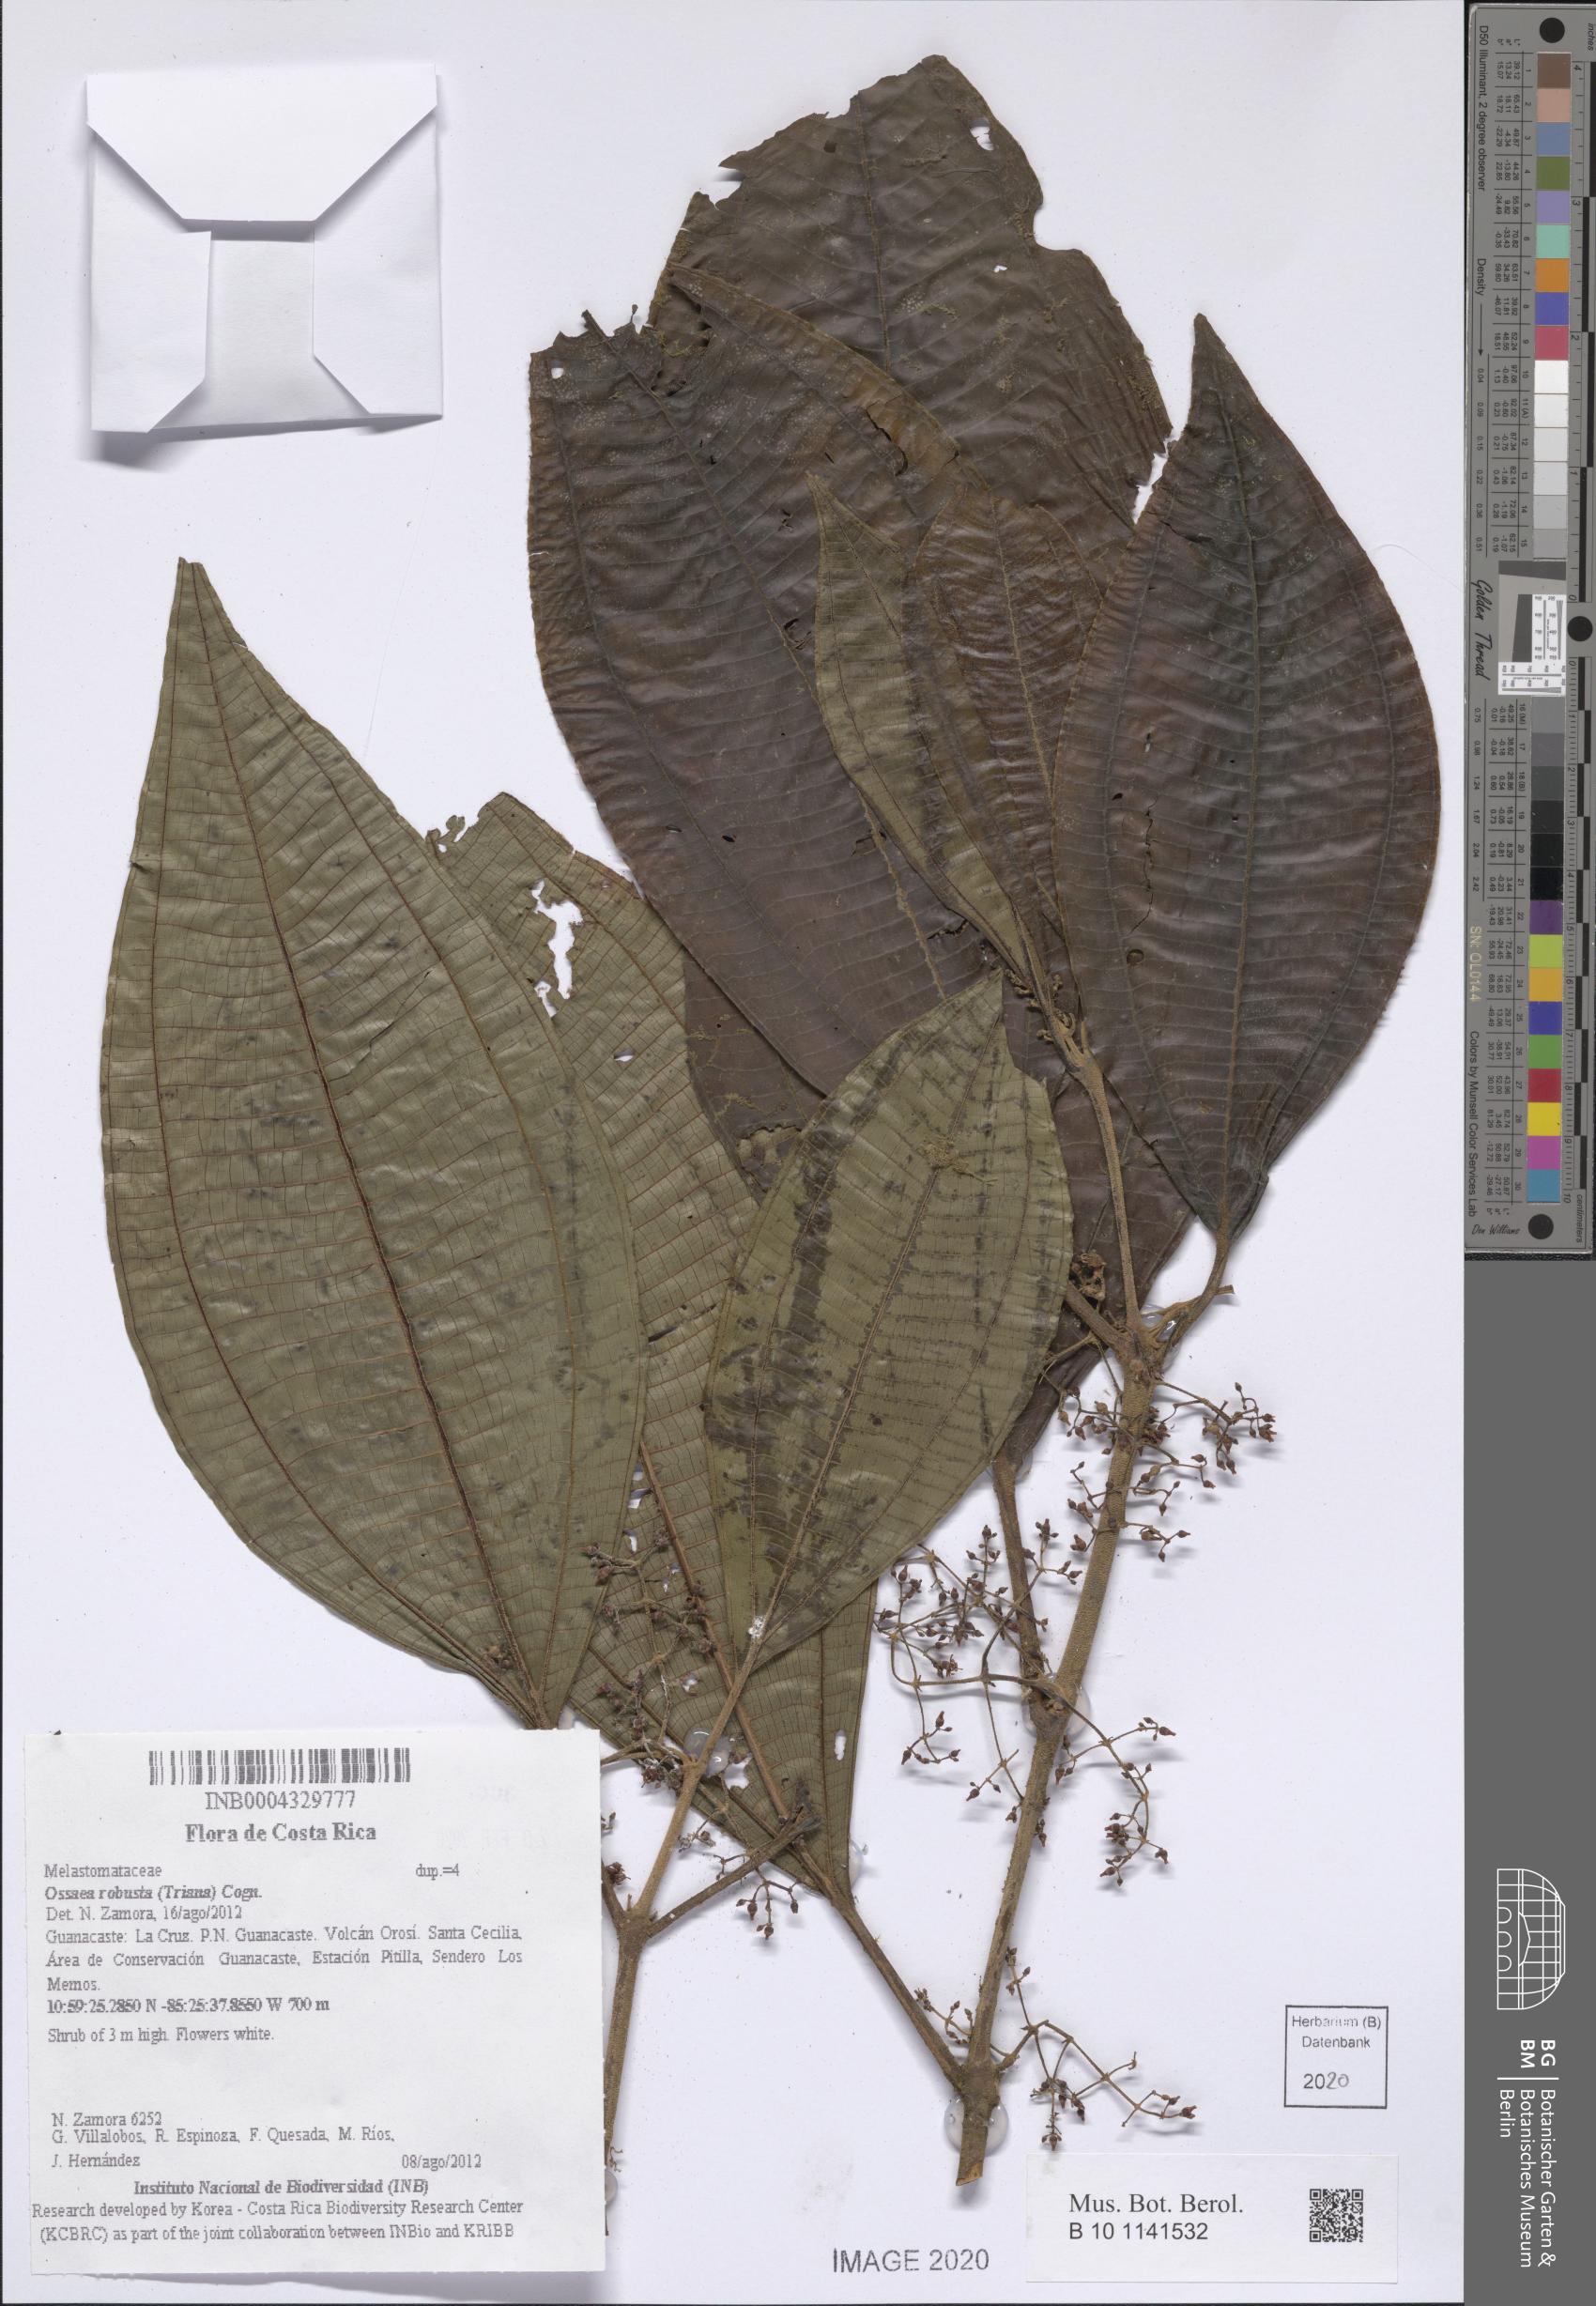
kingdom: Plantae
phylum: Tracheophyta
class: Magnoliopsida
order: Myrtales
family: Melastomataceae
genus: Miconia
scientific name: Miconia variabilis
